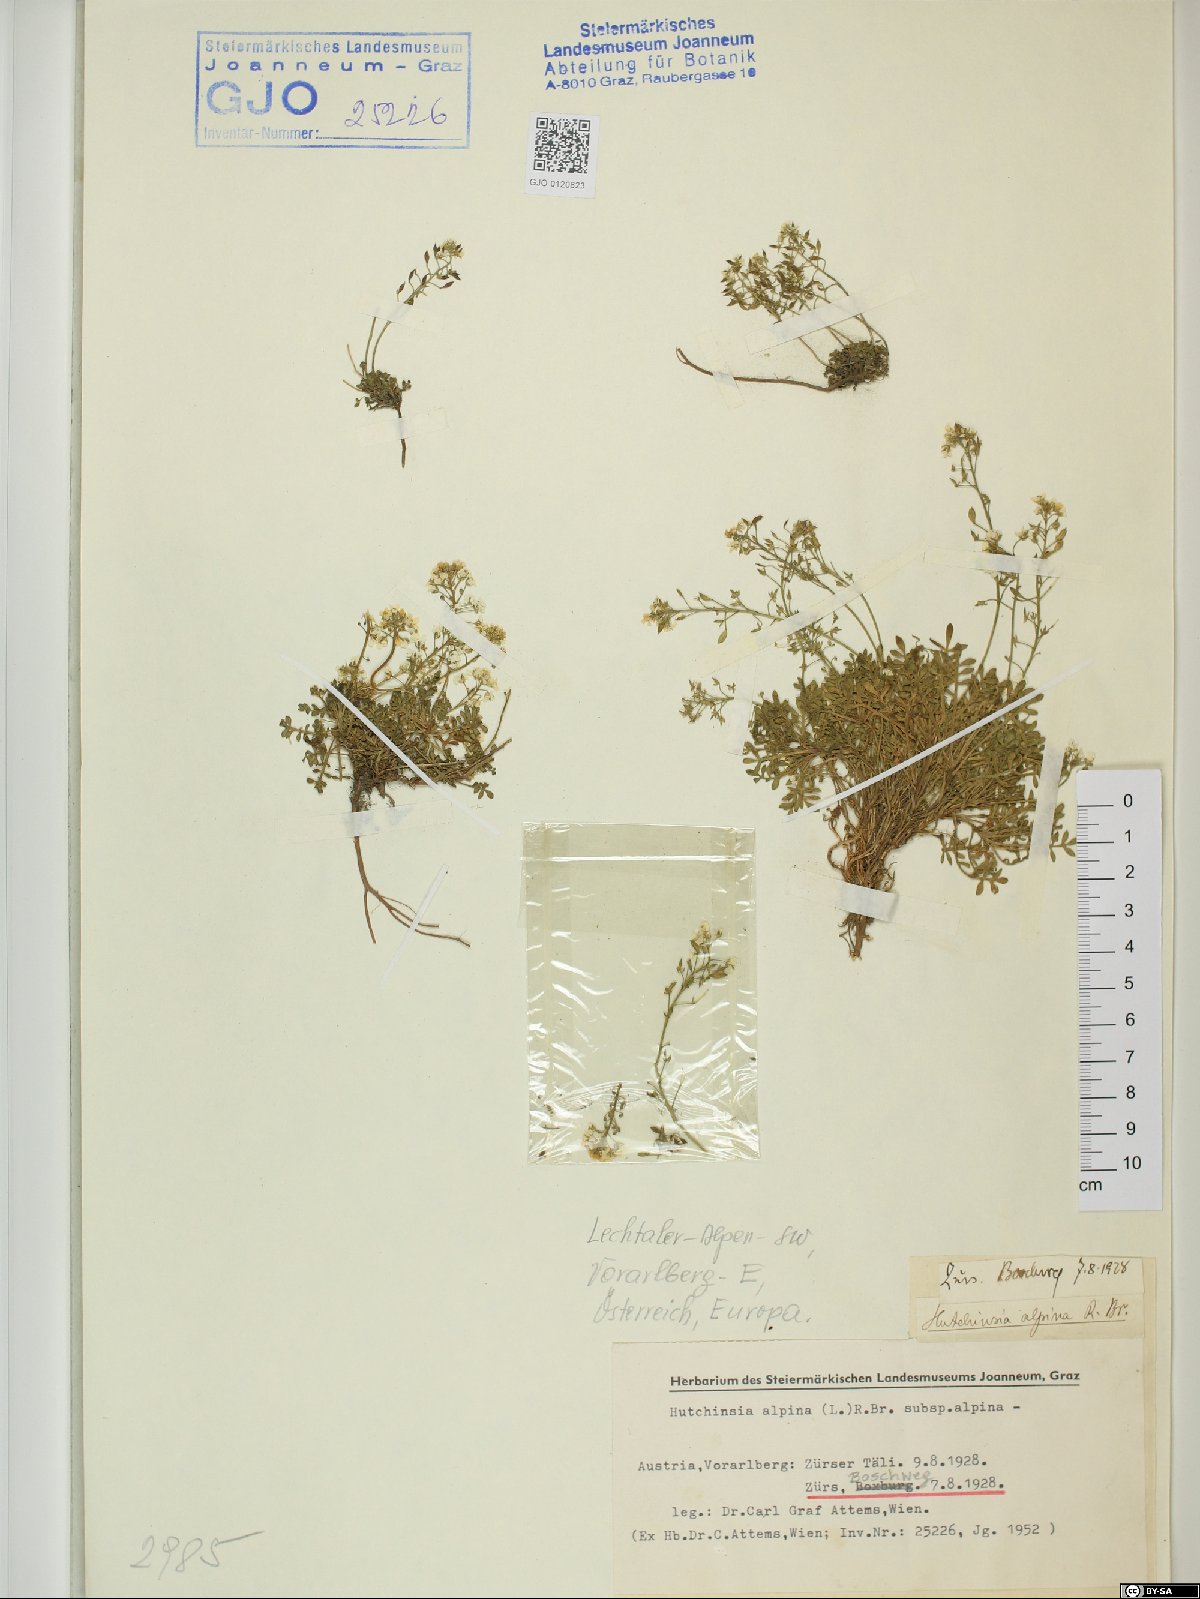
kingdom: Plantae
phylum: Tracheophyta
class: Magnoliopsida
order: Brassicales
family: Brassicaceae
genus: Hornungia
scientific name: Hornungia alpina
